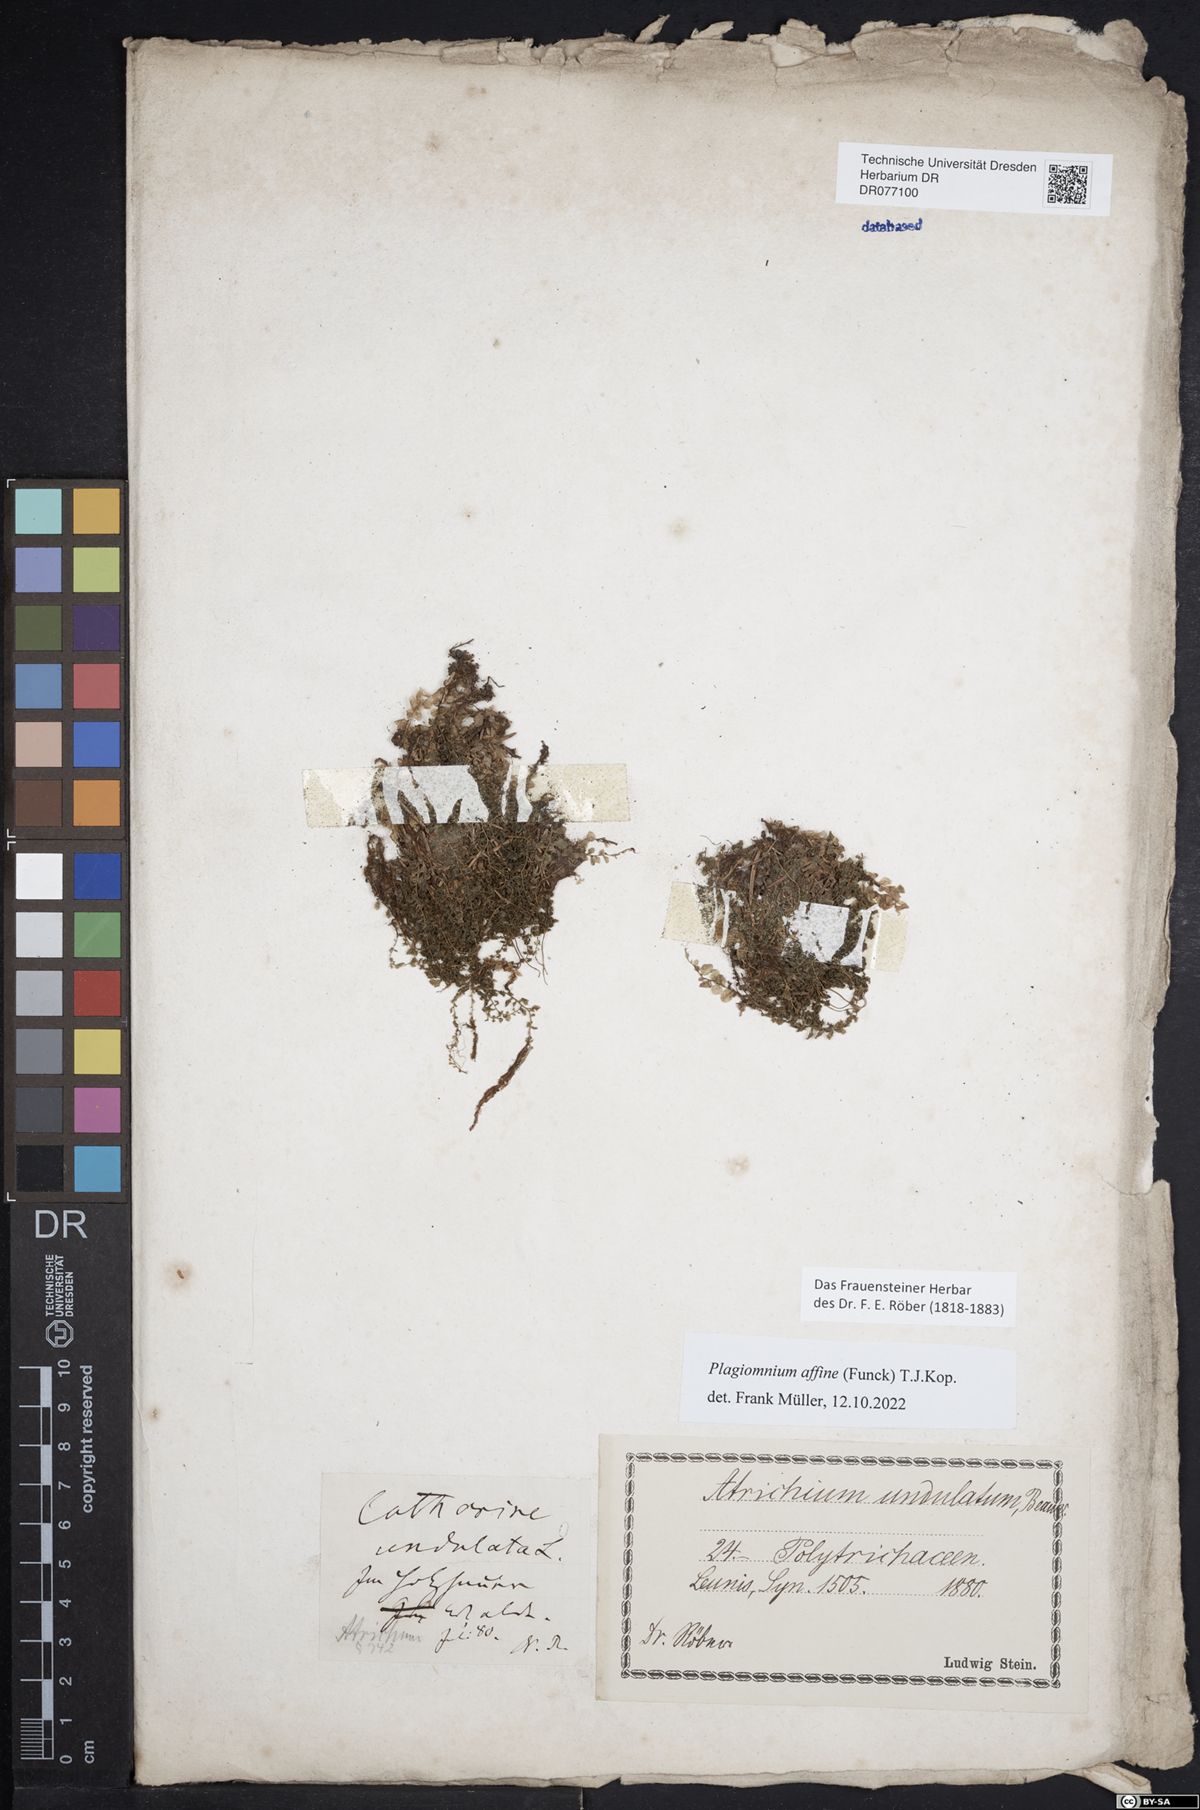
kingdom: Plantae
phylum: Bryophyta
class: Bryopsida
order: Bryales
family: Mniaceae
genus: Plagiomnium
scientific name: Plagiomnium affine
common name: Many-fruited thyme-moss
